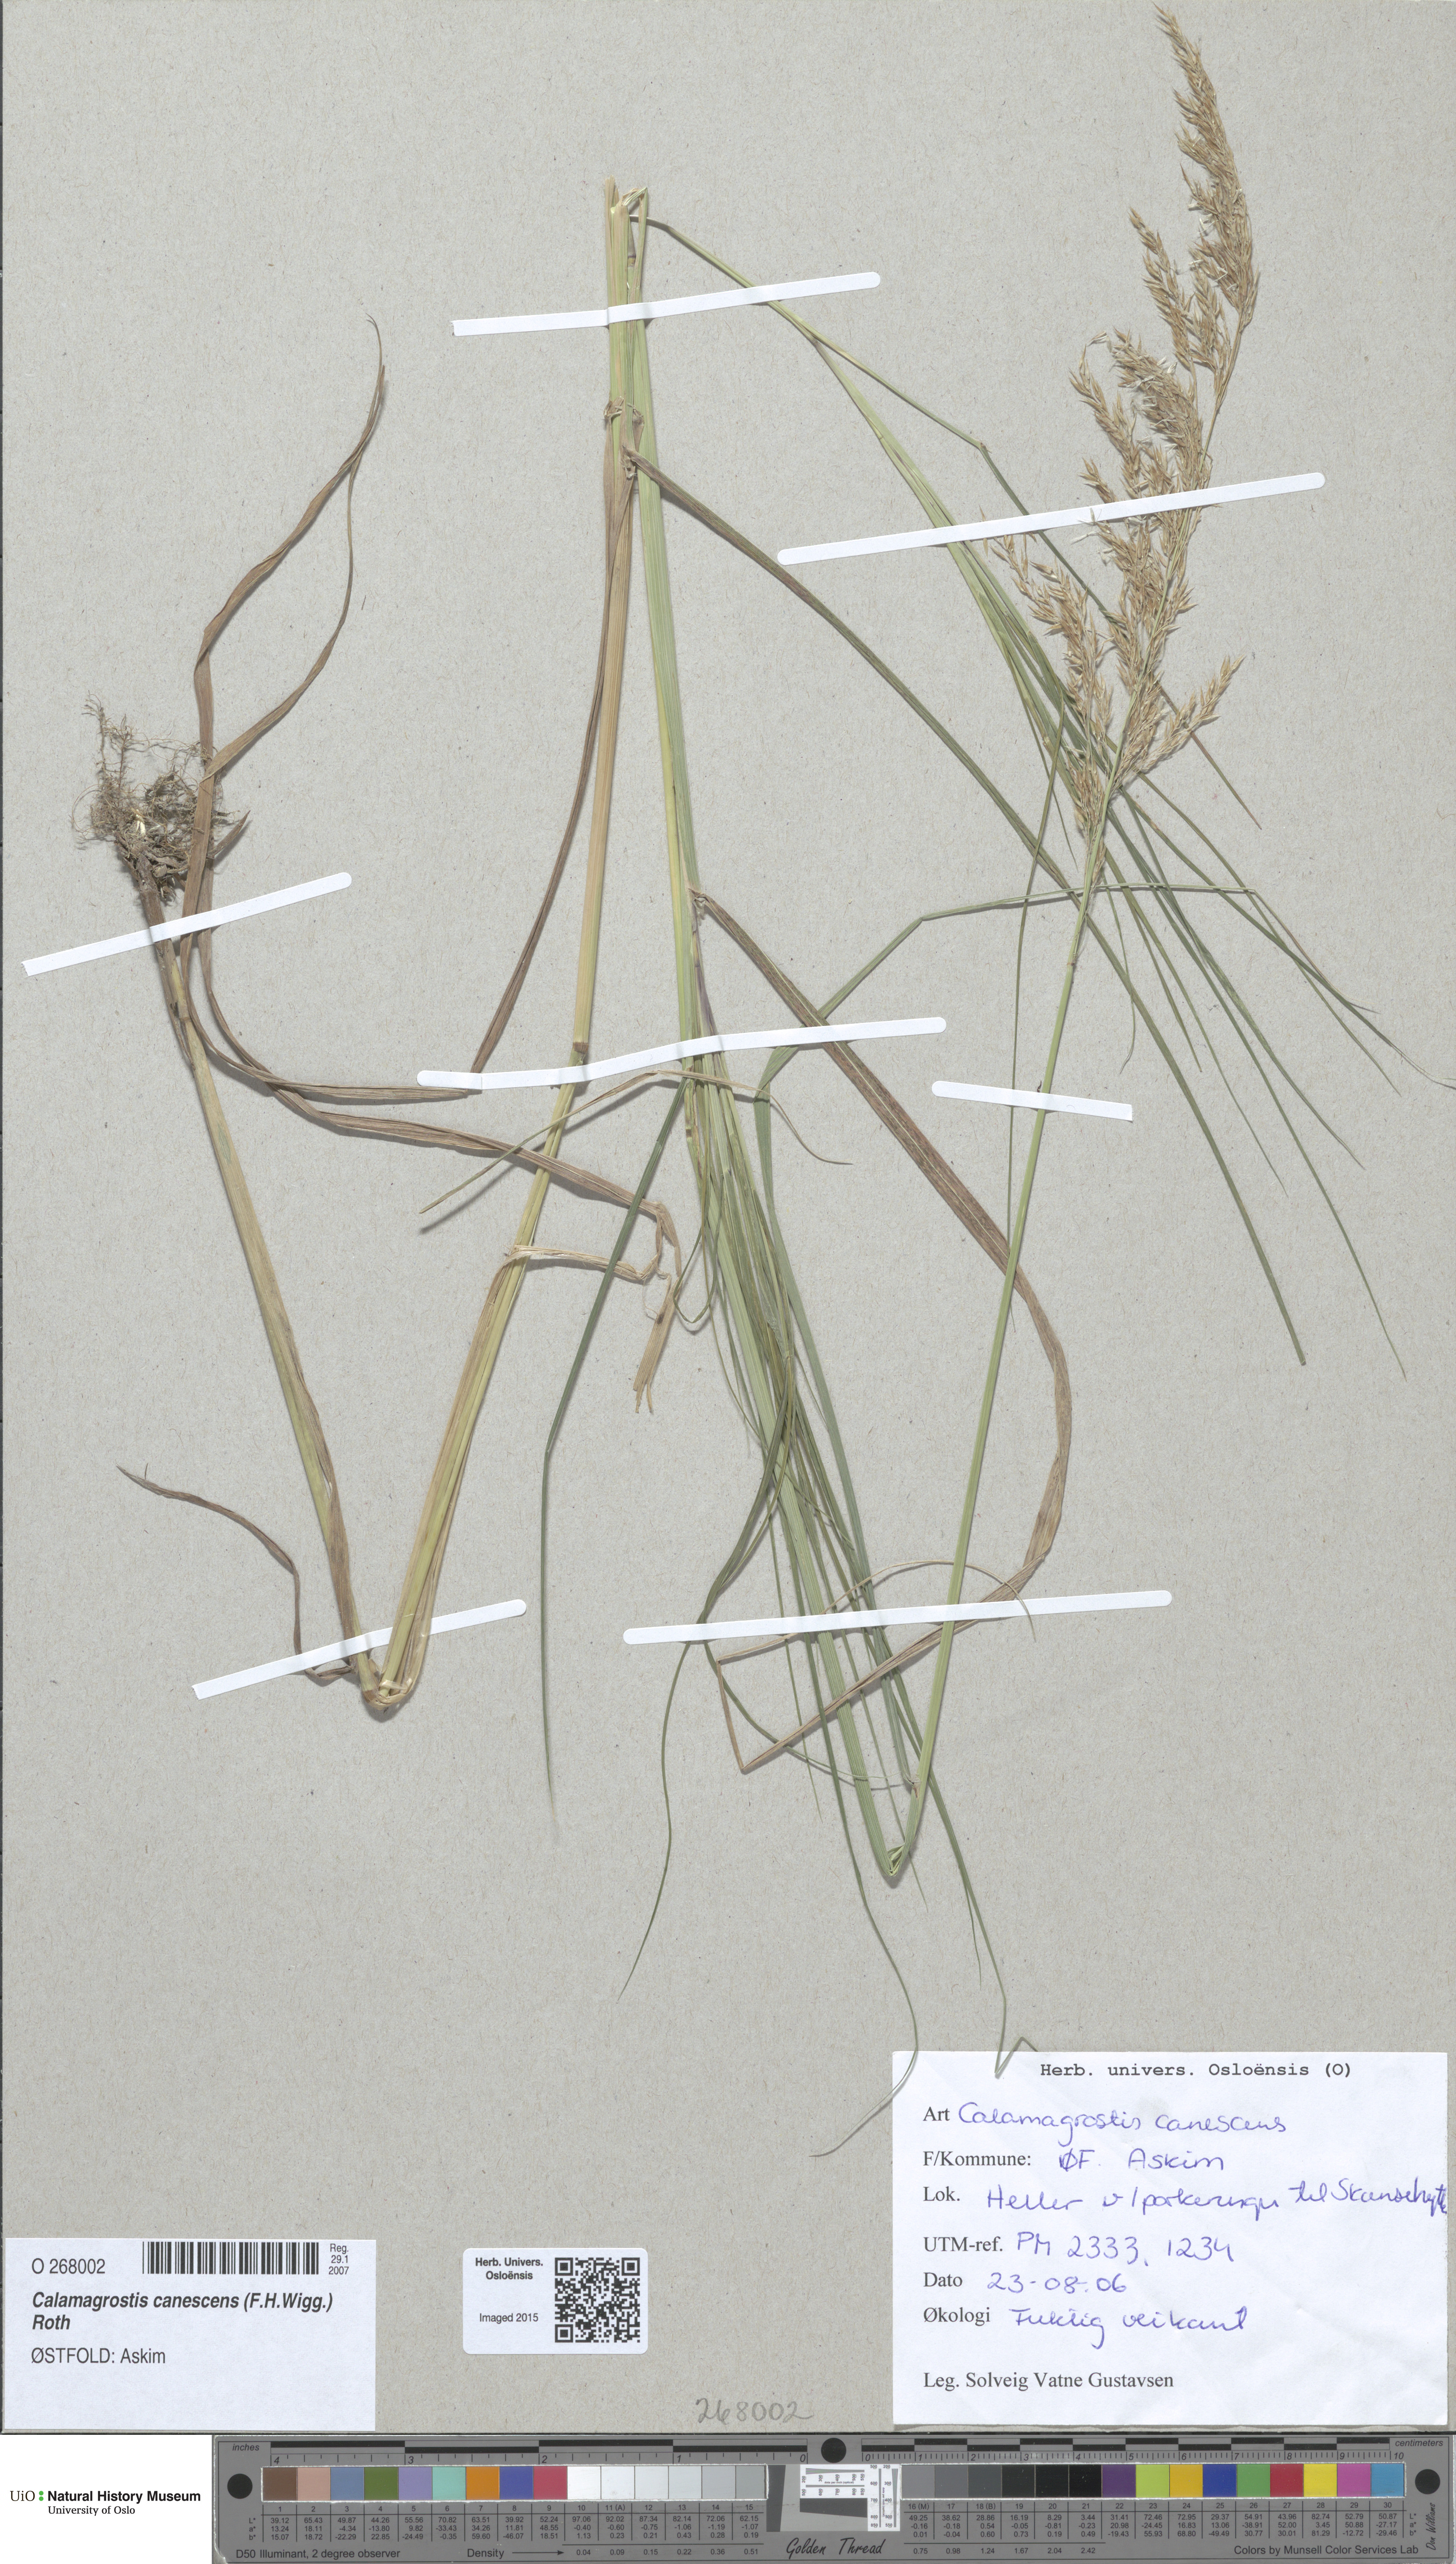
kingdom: Plantae
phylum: Tracheophyta
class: Liliopsida
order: Poales
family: Poaceae
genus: Calamagrostis
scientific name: Calamagrostis canescens
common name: Purple small-reed
